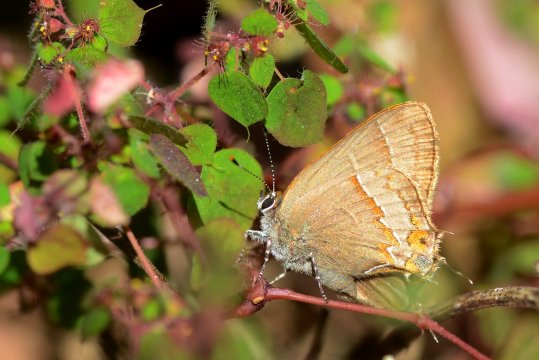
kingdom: Animalia
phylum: Arthropoda
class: Insecta
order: Lepidoptera
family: Lycaenidae
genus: Electrostrymon
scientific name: Electrostrymon
